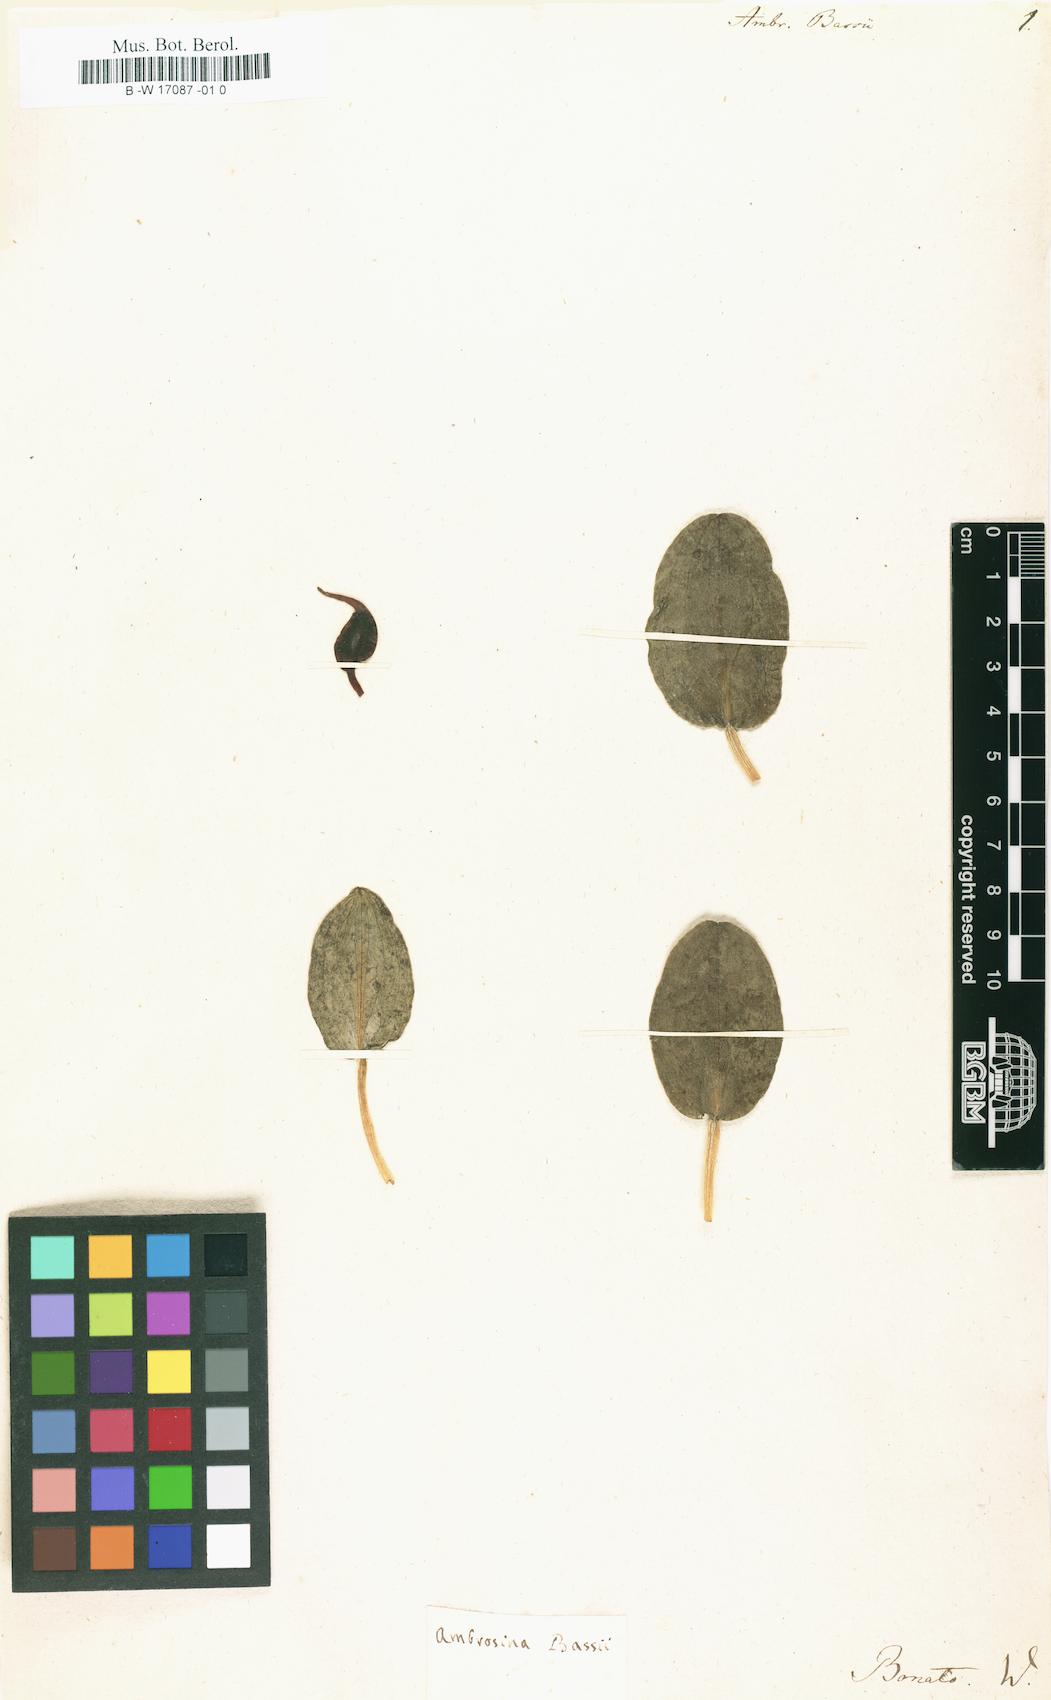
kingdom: Plantae
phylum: Tracheophyta
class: Liliopsida
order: Alismatales
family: Araceae
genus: Ambrosina
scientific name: Ambrosina bassii
